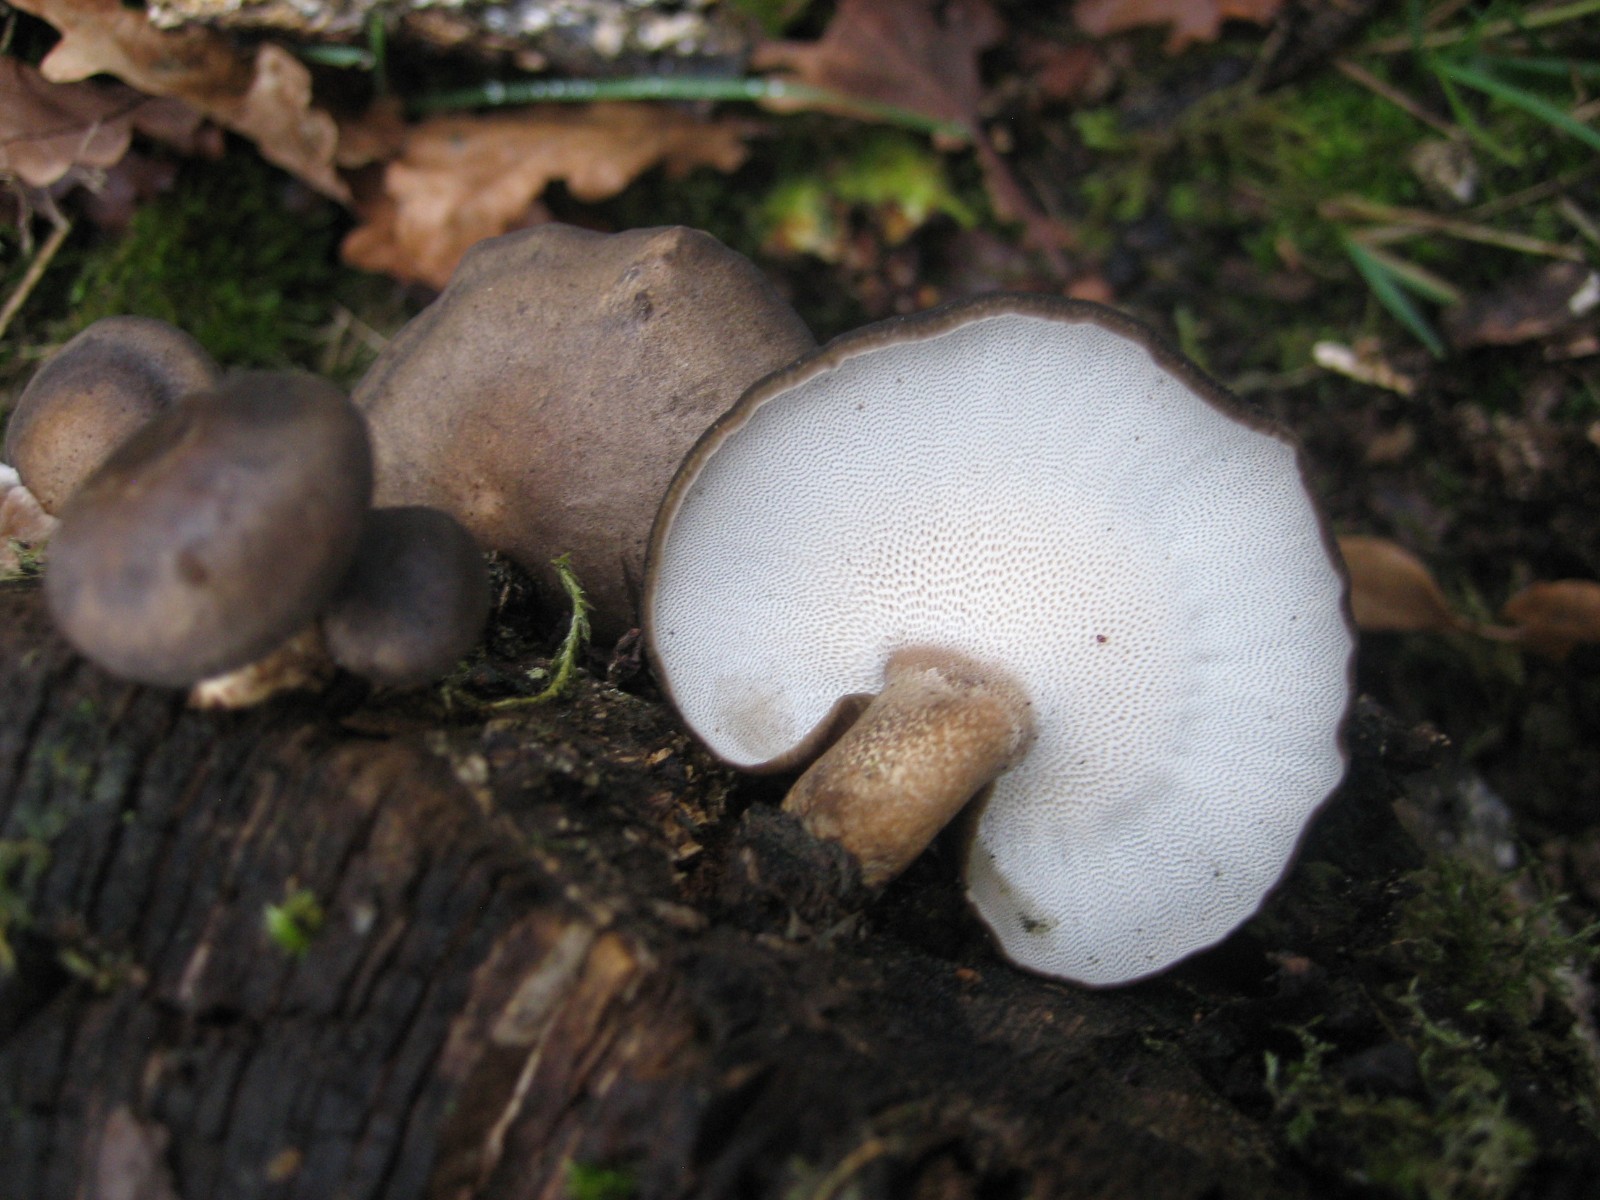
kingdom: Fungi
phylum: Basidiomycota
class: Agaricomycetes
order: Polyporales
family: Polyporaceae
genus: Lentinus
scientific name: Lentinus brumalis
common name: vinter-stilkporesvamp
